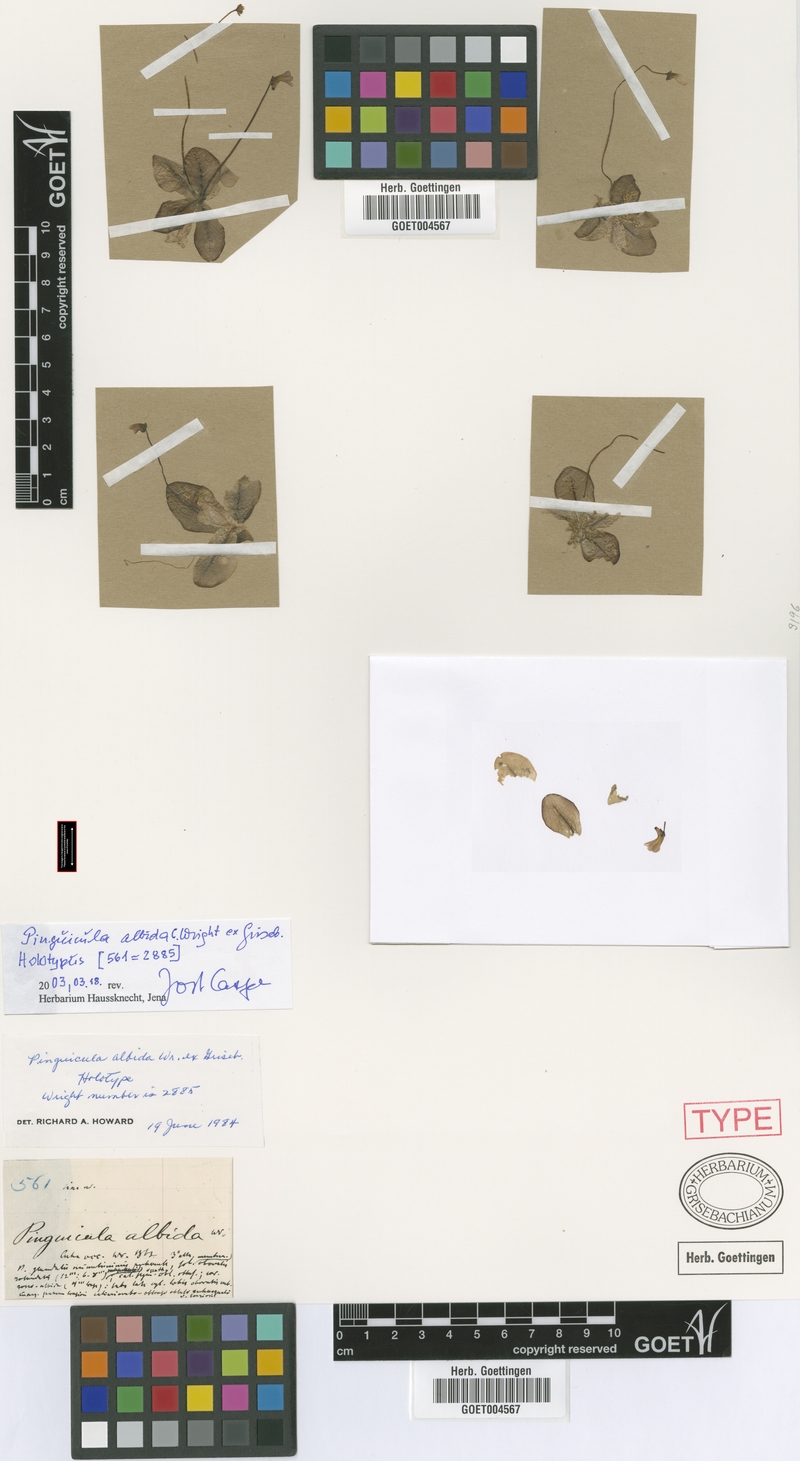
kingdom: Plantae
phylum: Tracheophyta
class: Magnoliopsida
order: Lamiales
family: Lentibulariaceae
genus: Pinguicula
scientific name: Pinguicula albida
